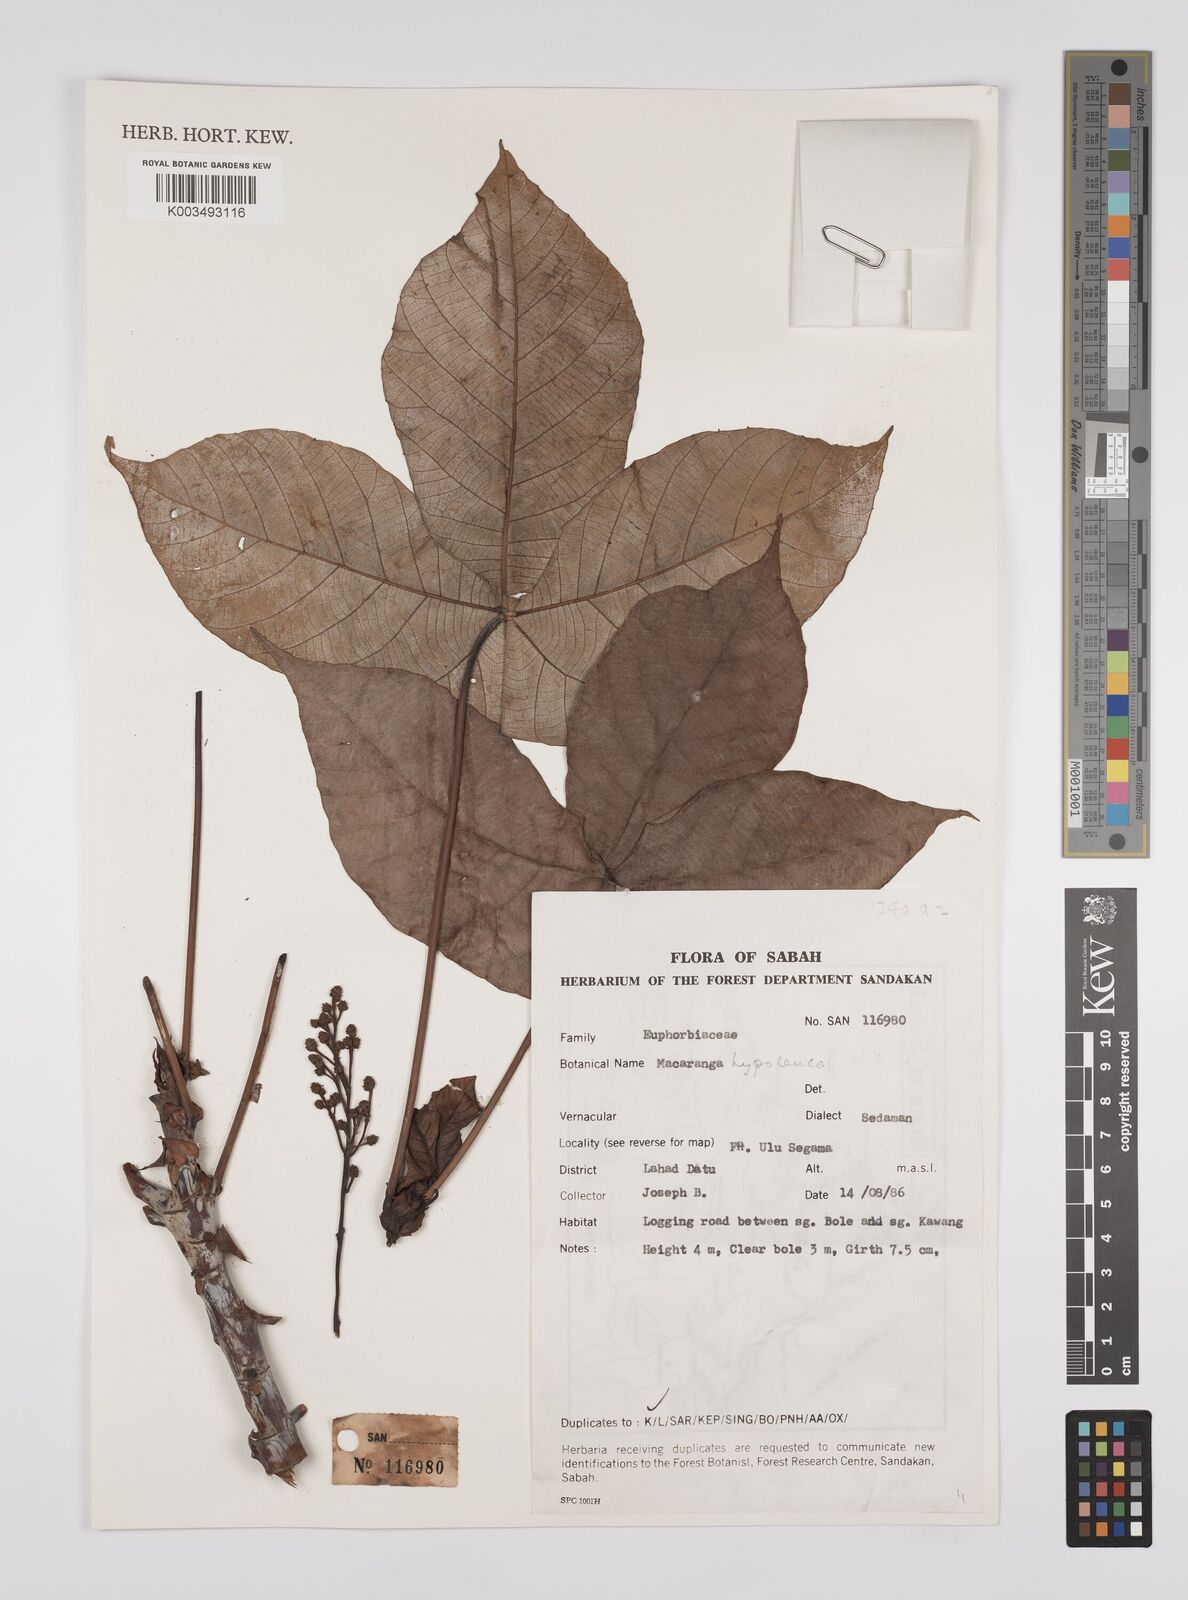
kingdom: Plantae
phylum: Tracheophyta
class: Magnoliopsida
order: Malpighiales
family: Euphorbiaceae
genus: Macaranga
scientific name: Macaranga hypoleuca
